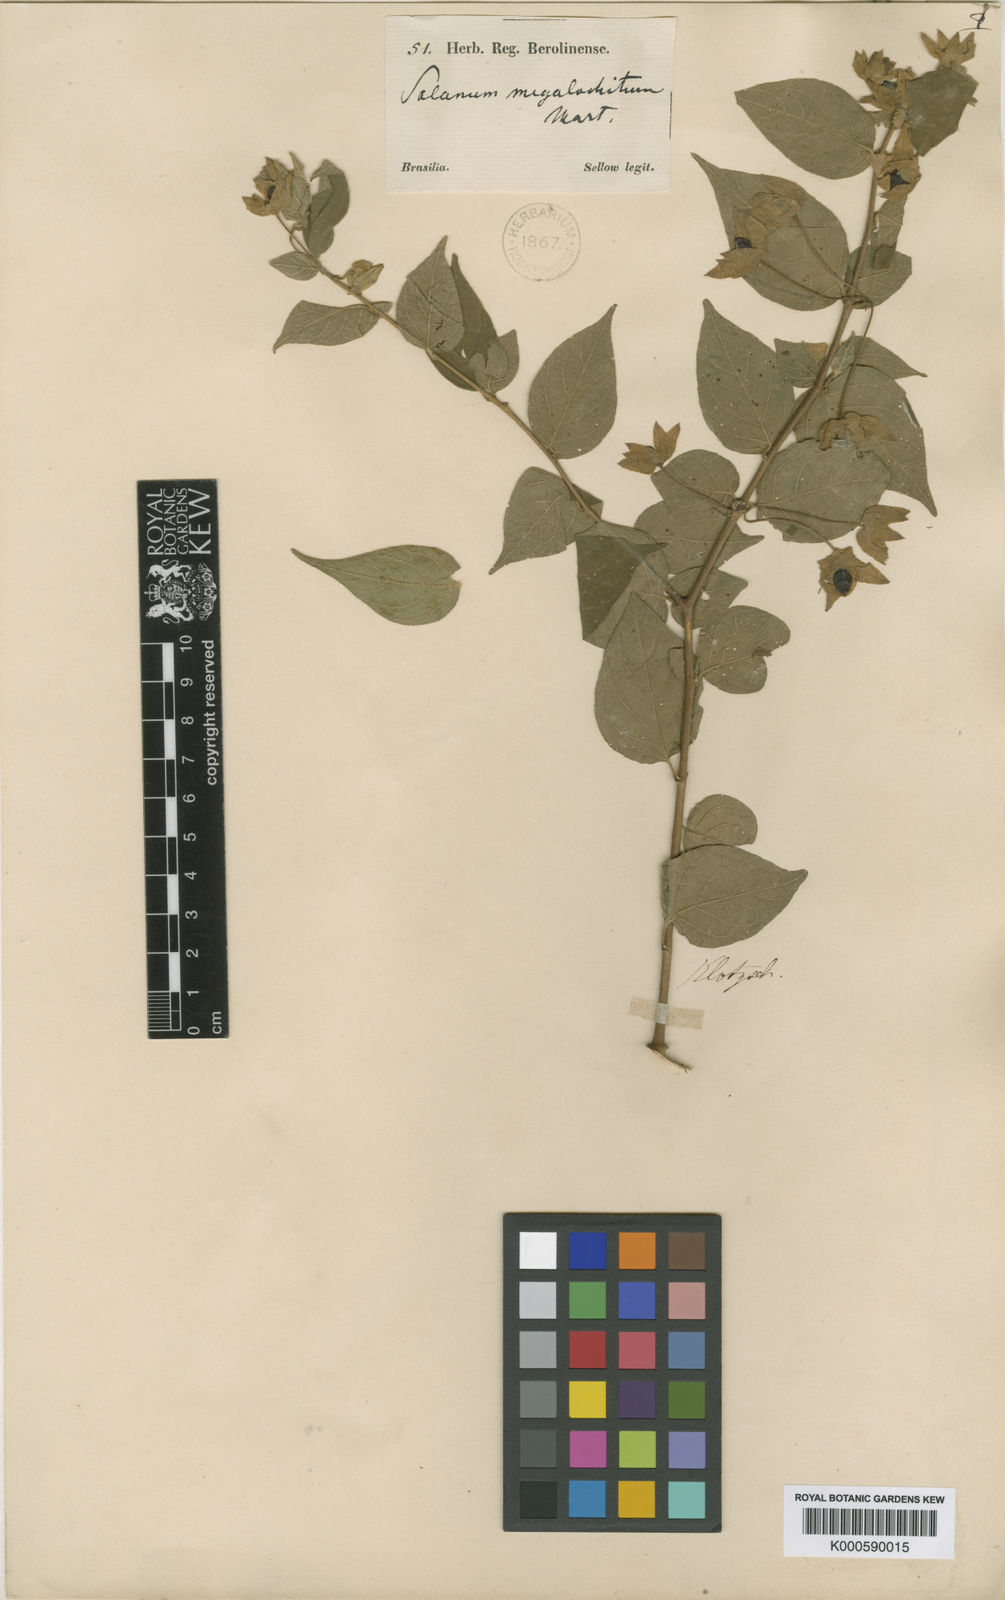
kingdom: Plantae
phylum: Tracheophyta
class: Magnoliopsida
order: Solanales
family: Solanaceae
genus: Solanum
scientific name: Solanum didymum
